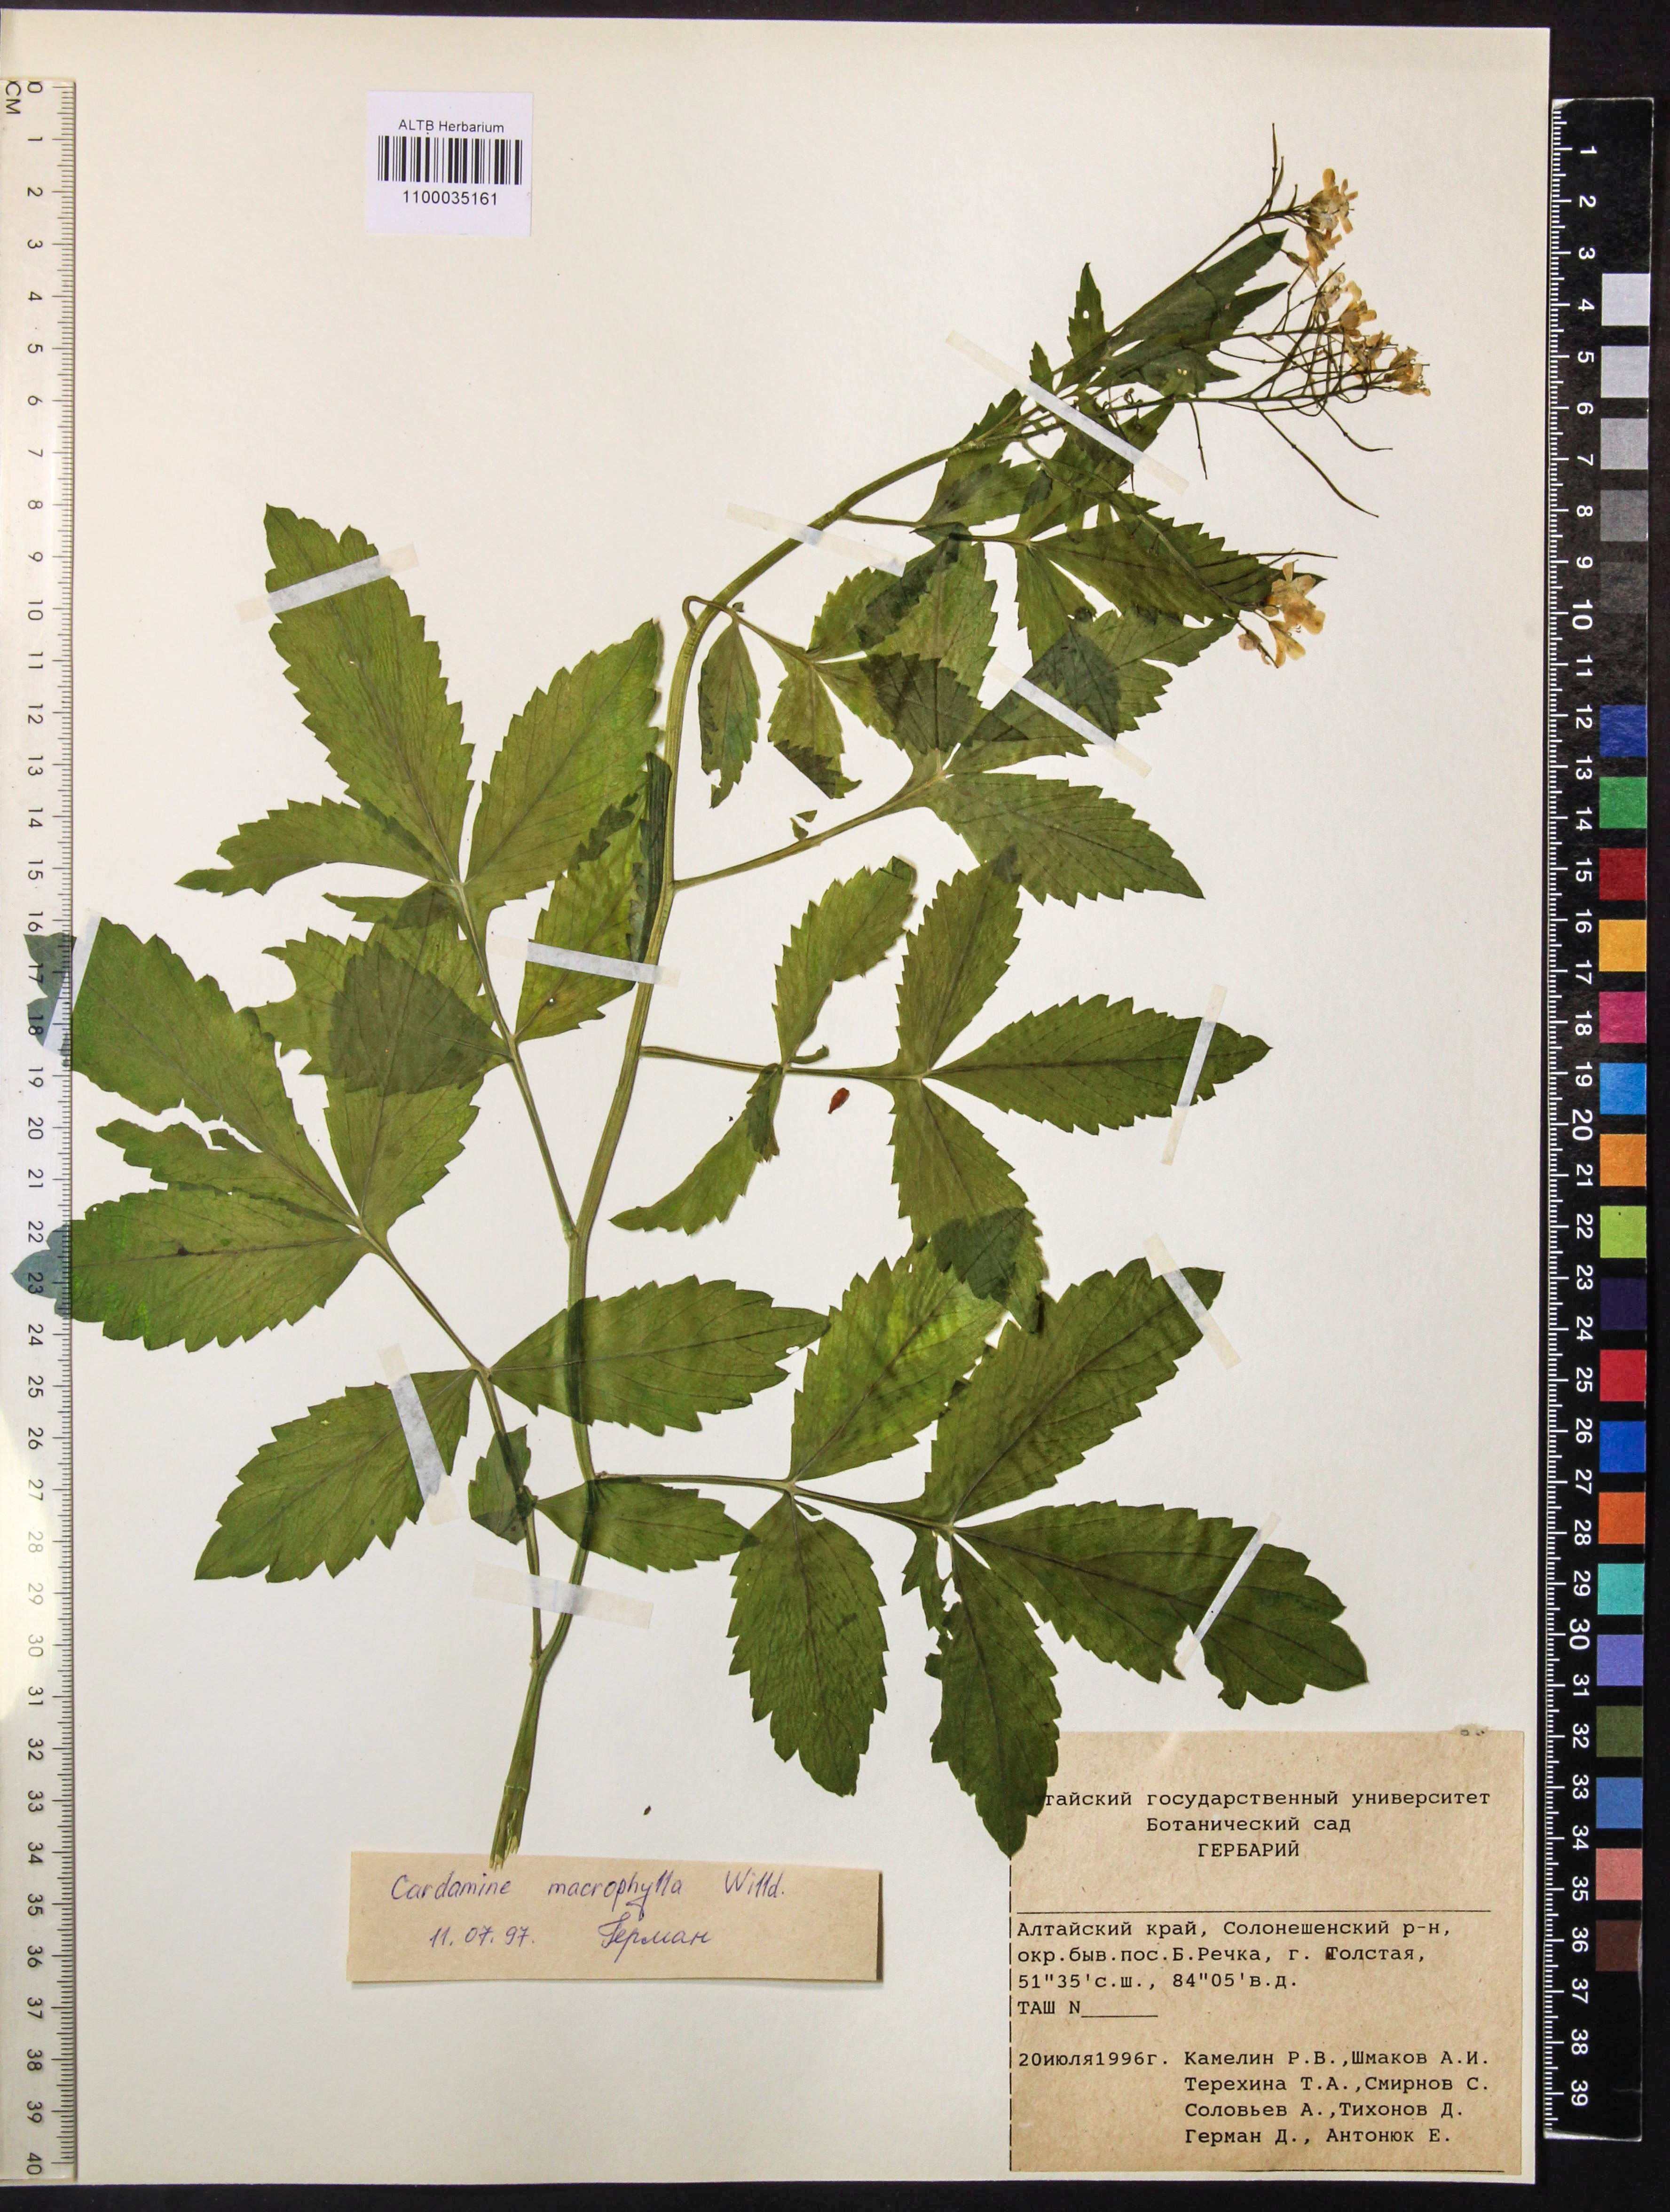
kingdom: Plantae
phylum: Tracheophyta
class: Magnoliopsida
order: Brassicales
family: Brassicaceae
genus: Cardamine
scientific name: Cardamine macrophylla
